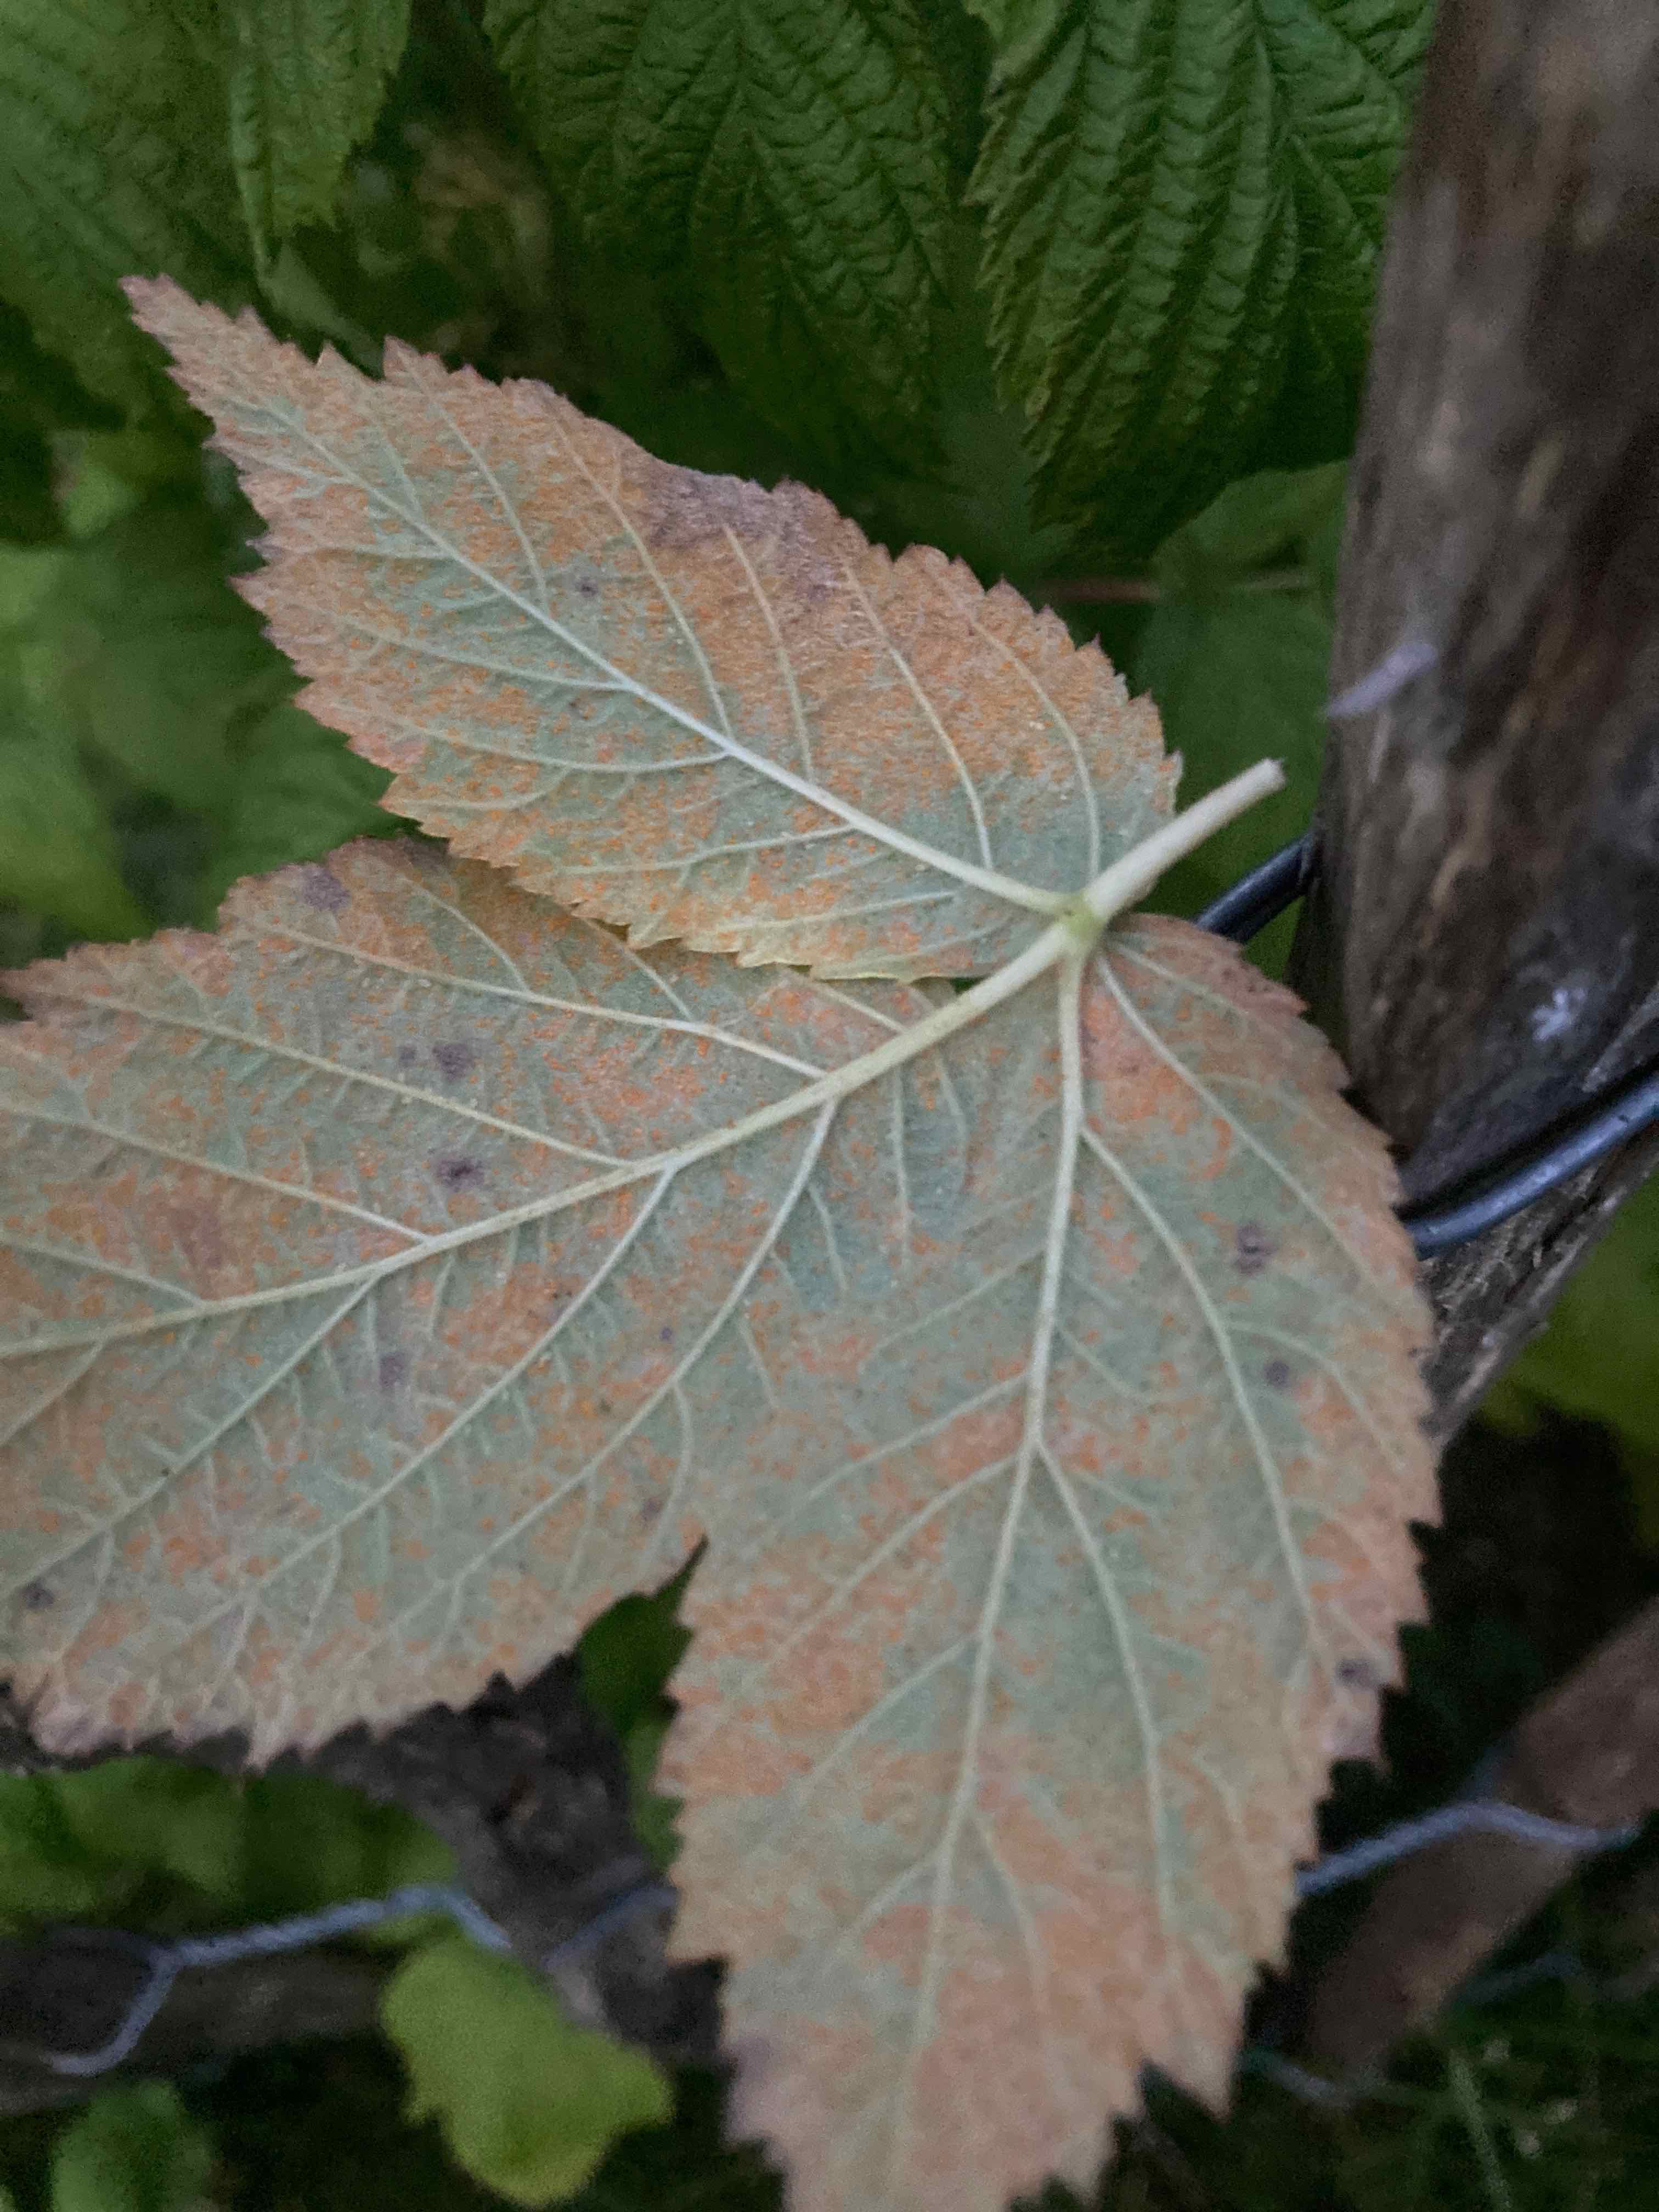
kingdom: Fungi
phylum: Basidiomycota
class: Pucciniomycetes
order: Pucciniales
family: Phragmidiaceae
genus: Phragmidium
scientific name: Phragmidium rubi-idaei
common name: hindbær-flercellerust
